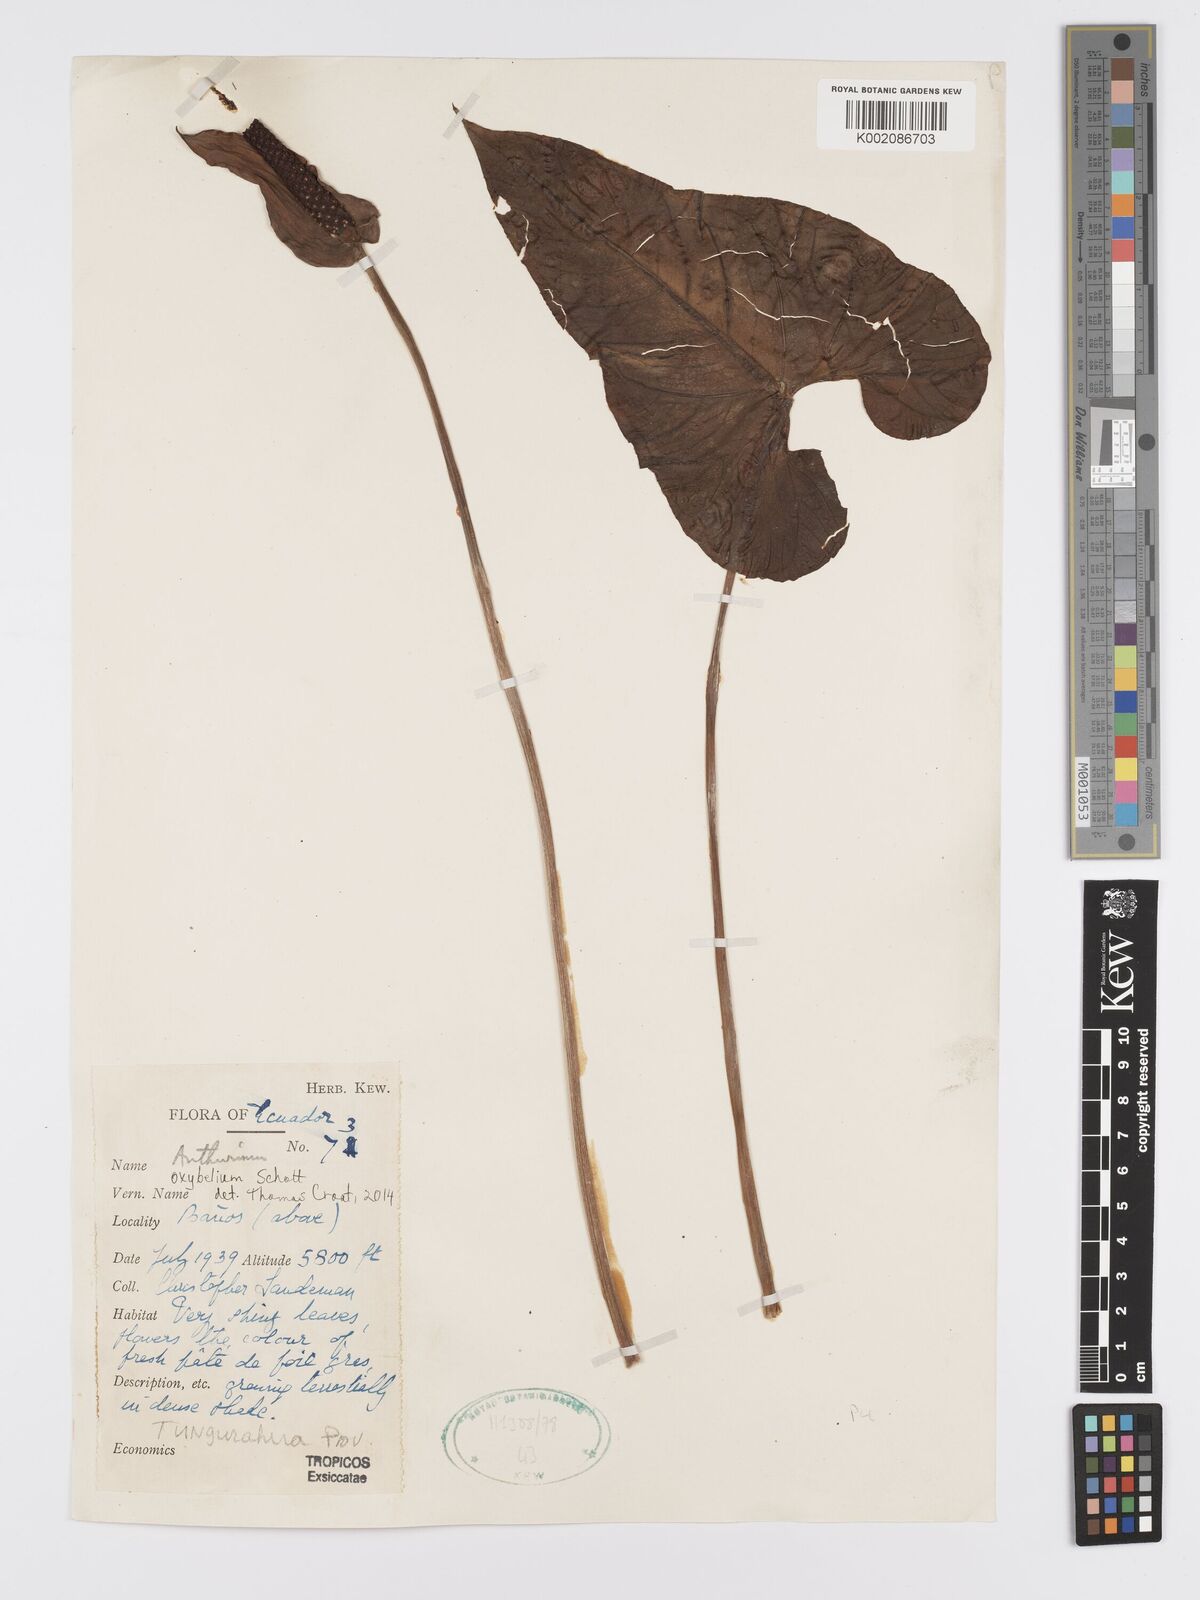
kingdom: Plantae
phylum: Tracheophyta
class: Liliopsida
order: Alismatales
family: Araceae
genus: Anthurium
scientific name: Anthurium oxybelium
